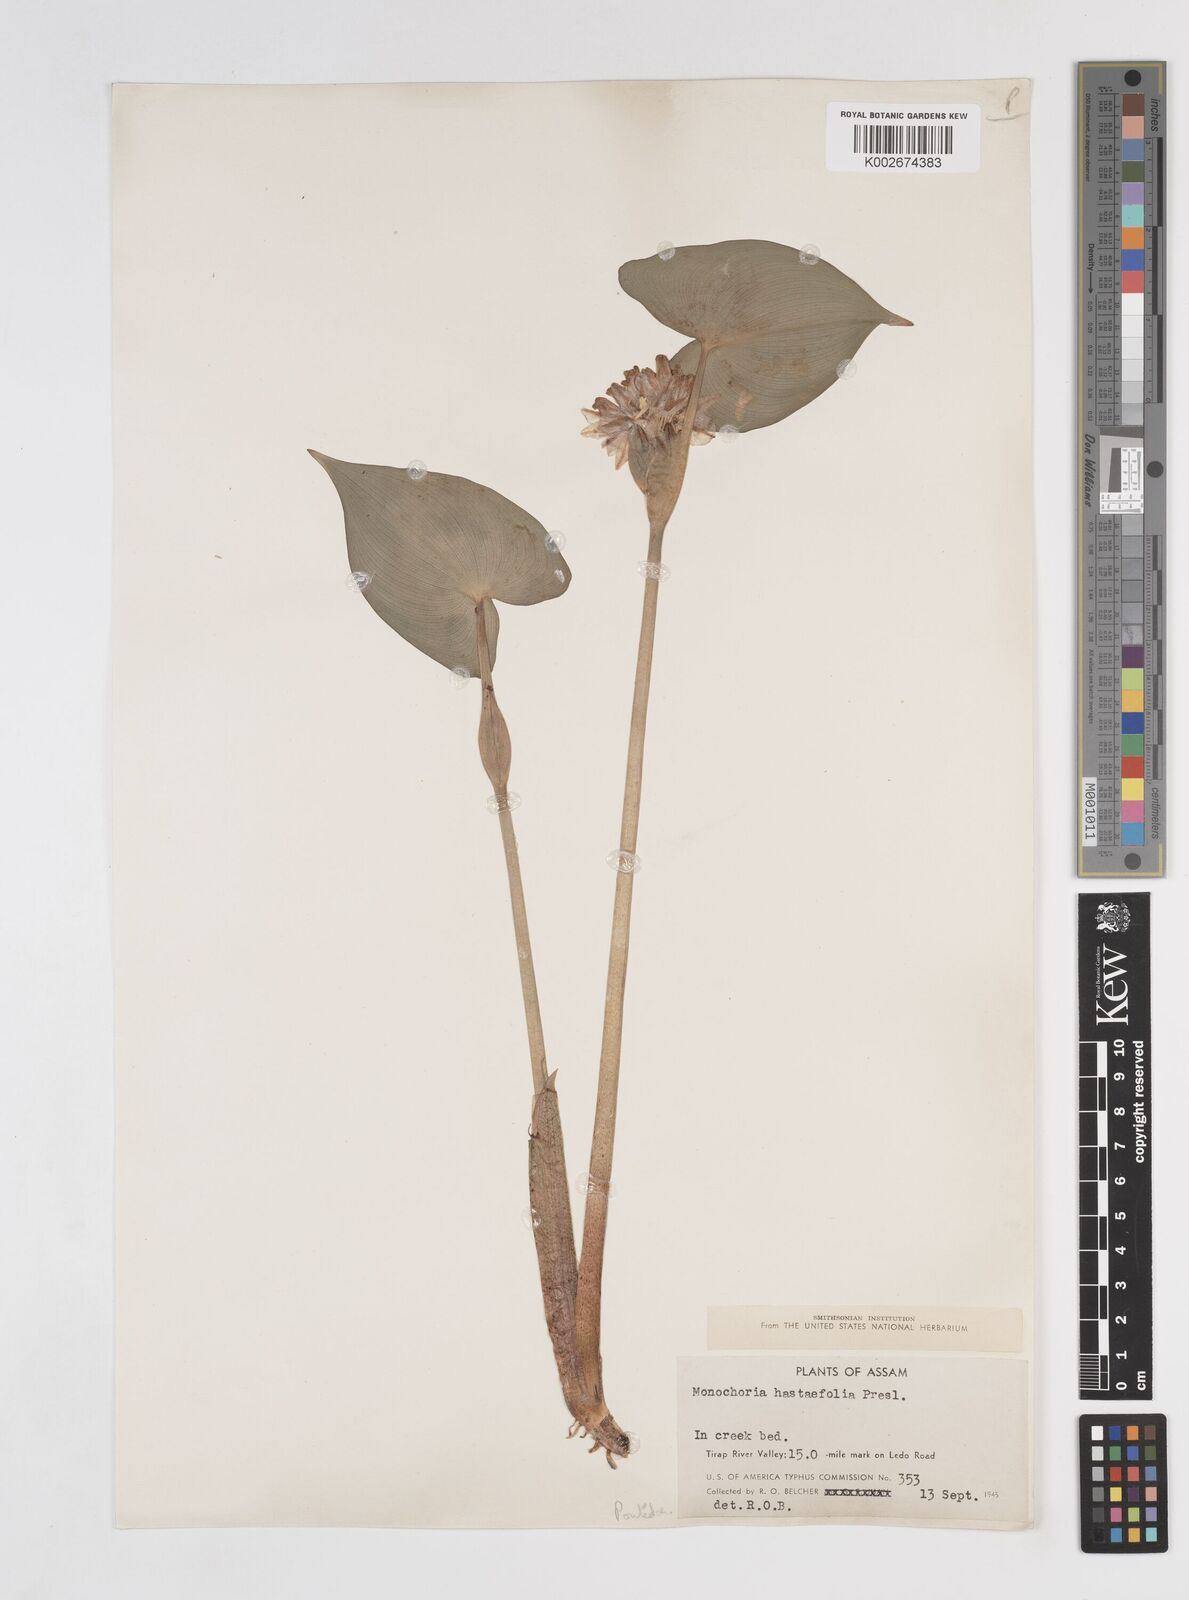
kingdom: Plantae
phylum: Tracheophyta
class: Liliopsida
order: Commelinales
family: Pontederiaceae
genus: Pontederia
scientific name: Pontederia hastata
